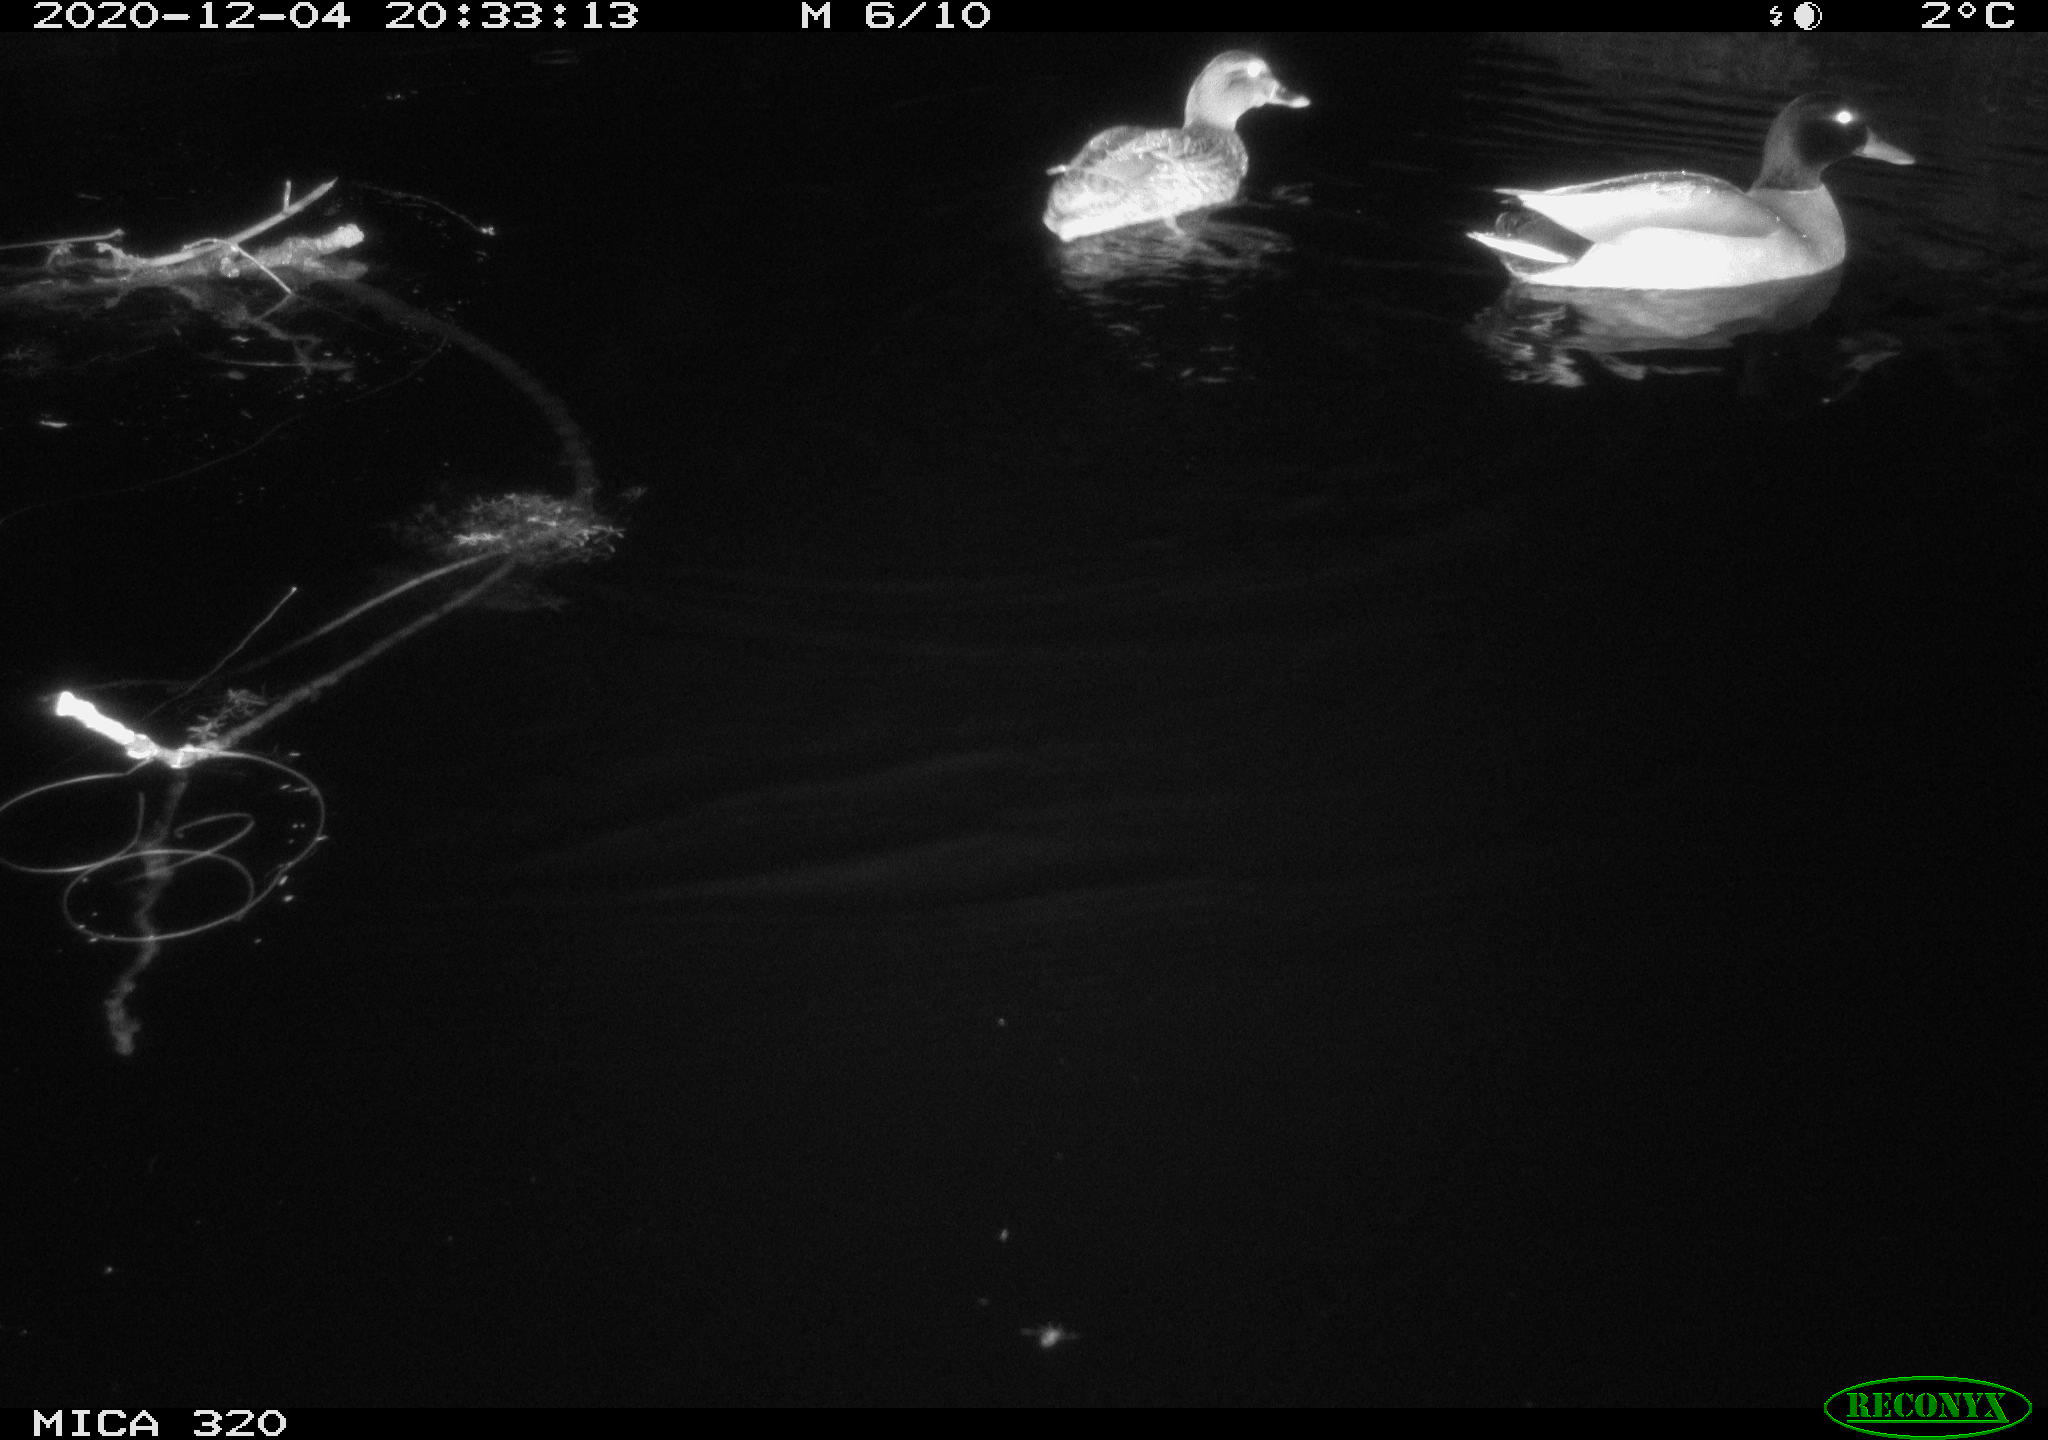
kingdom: Animalia
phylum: Chordata
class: Aves
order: Anseriformes
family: Anatidae
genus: Anas
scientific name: Anas platyrhynchos
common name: Mallard
